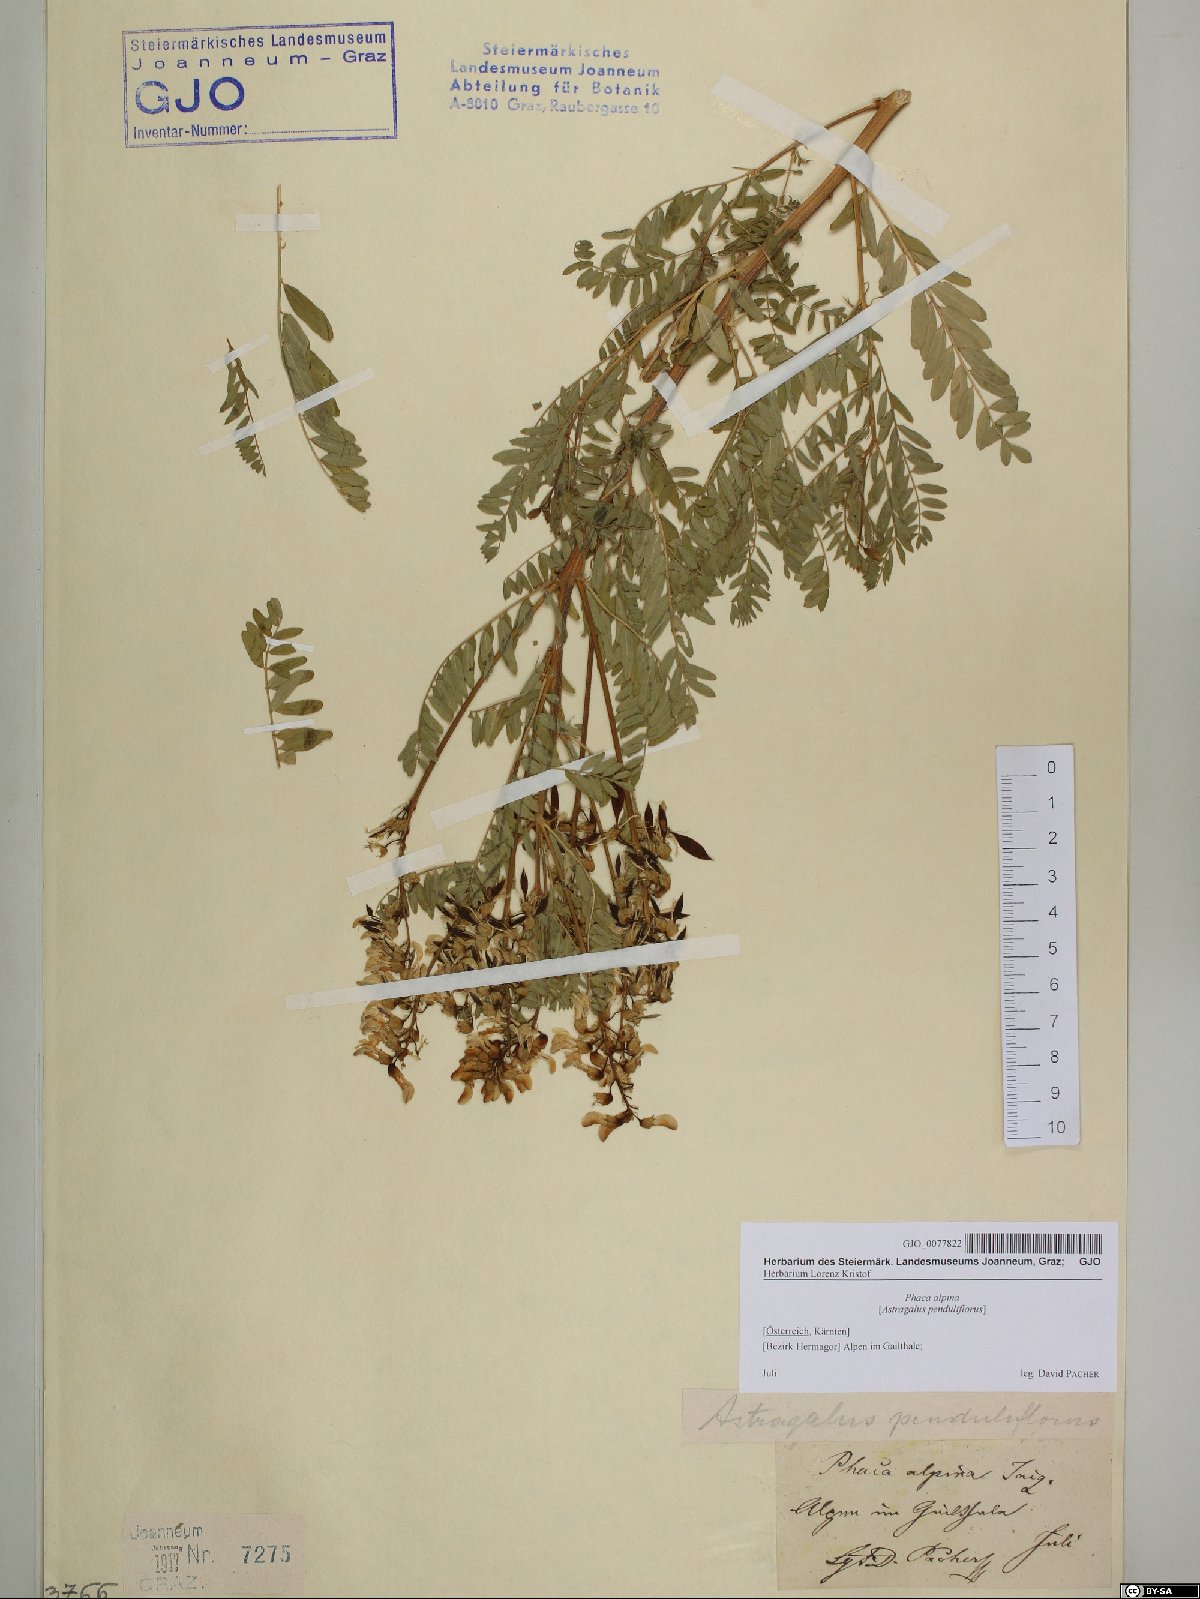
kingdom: Plantae
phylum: Tracheophyta
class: Magnoliopsida
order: Fabales
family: Fabaceae
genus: Astragalus
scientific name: Astragalus penduliflorus
